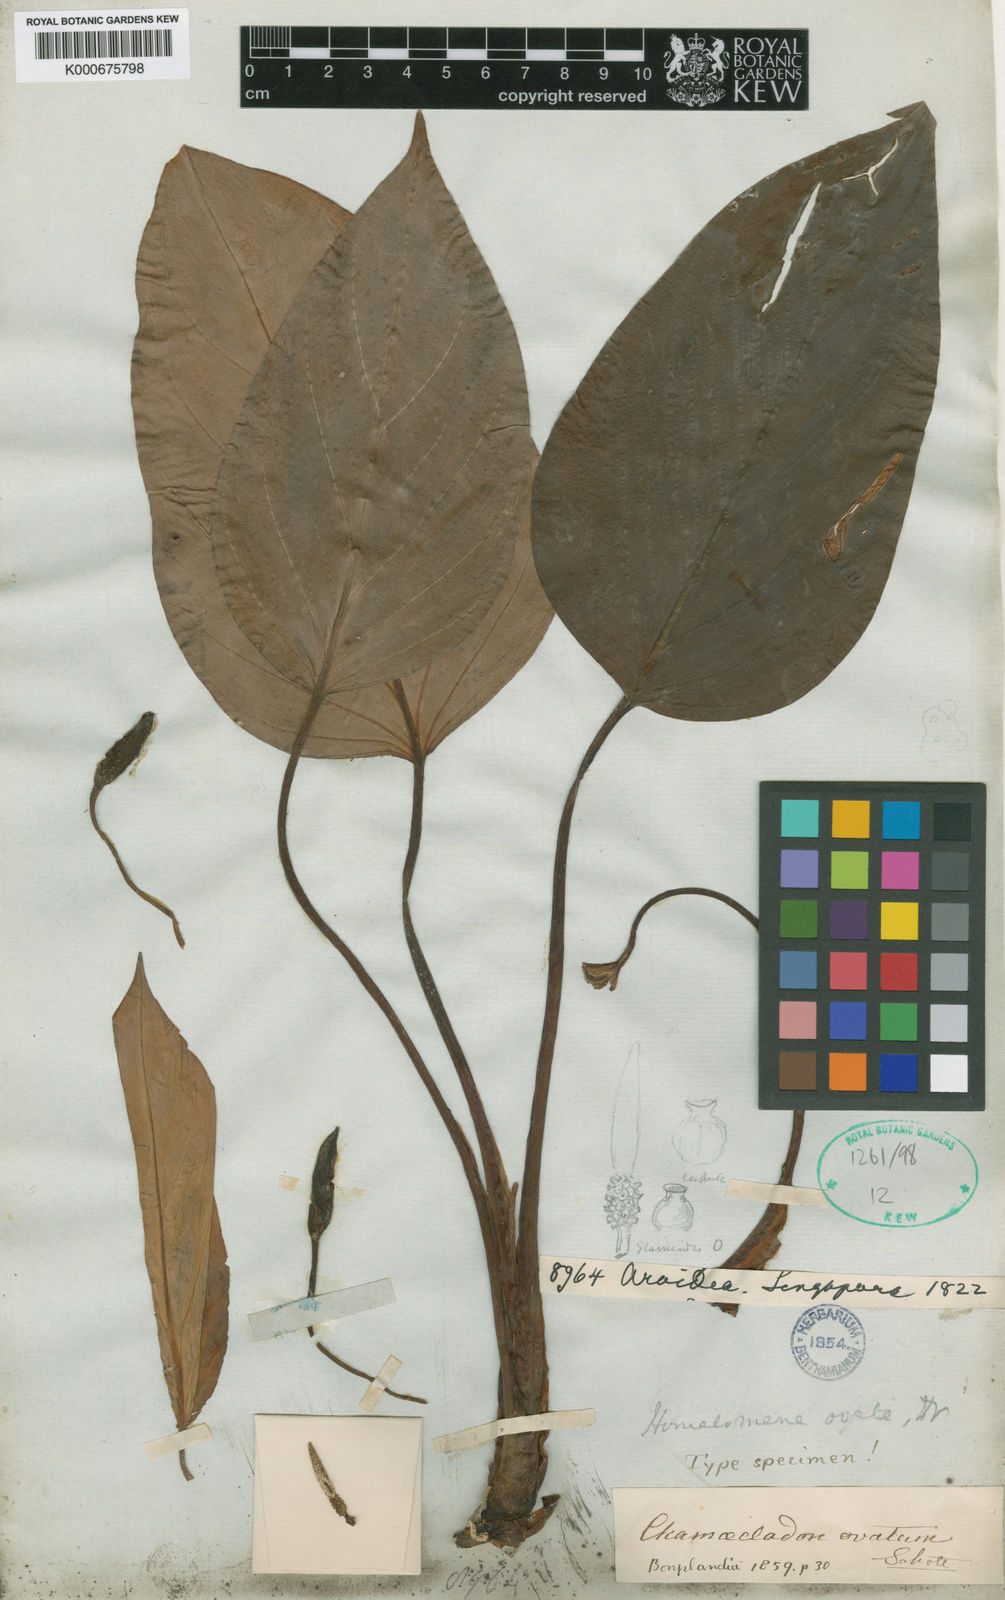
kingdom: Plantae
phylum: Tracheophyta
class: Liliopsida
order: Alismatales
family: Araceae
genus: Homalomena
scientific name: Homalomena nathanielii
